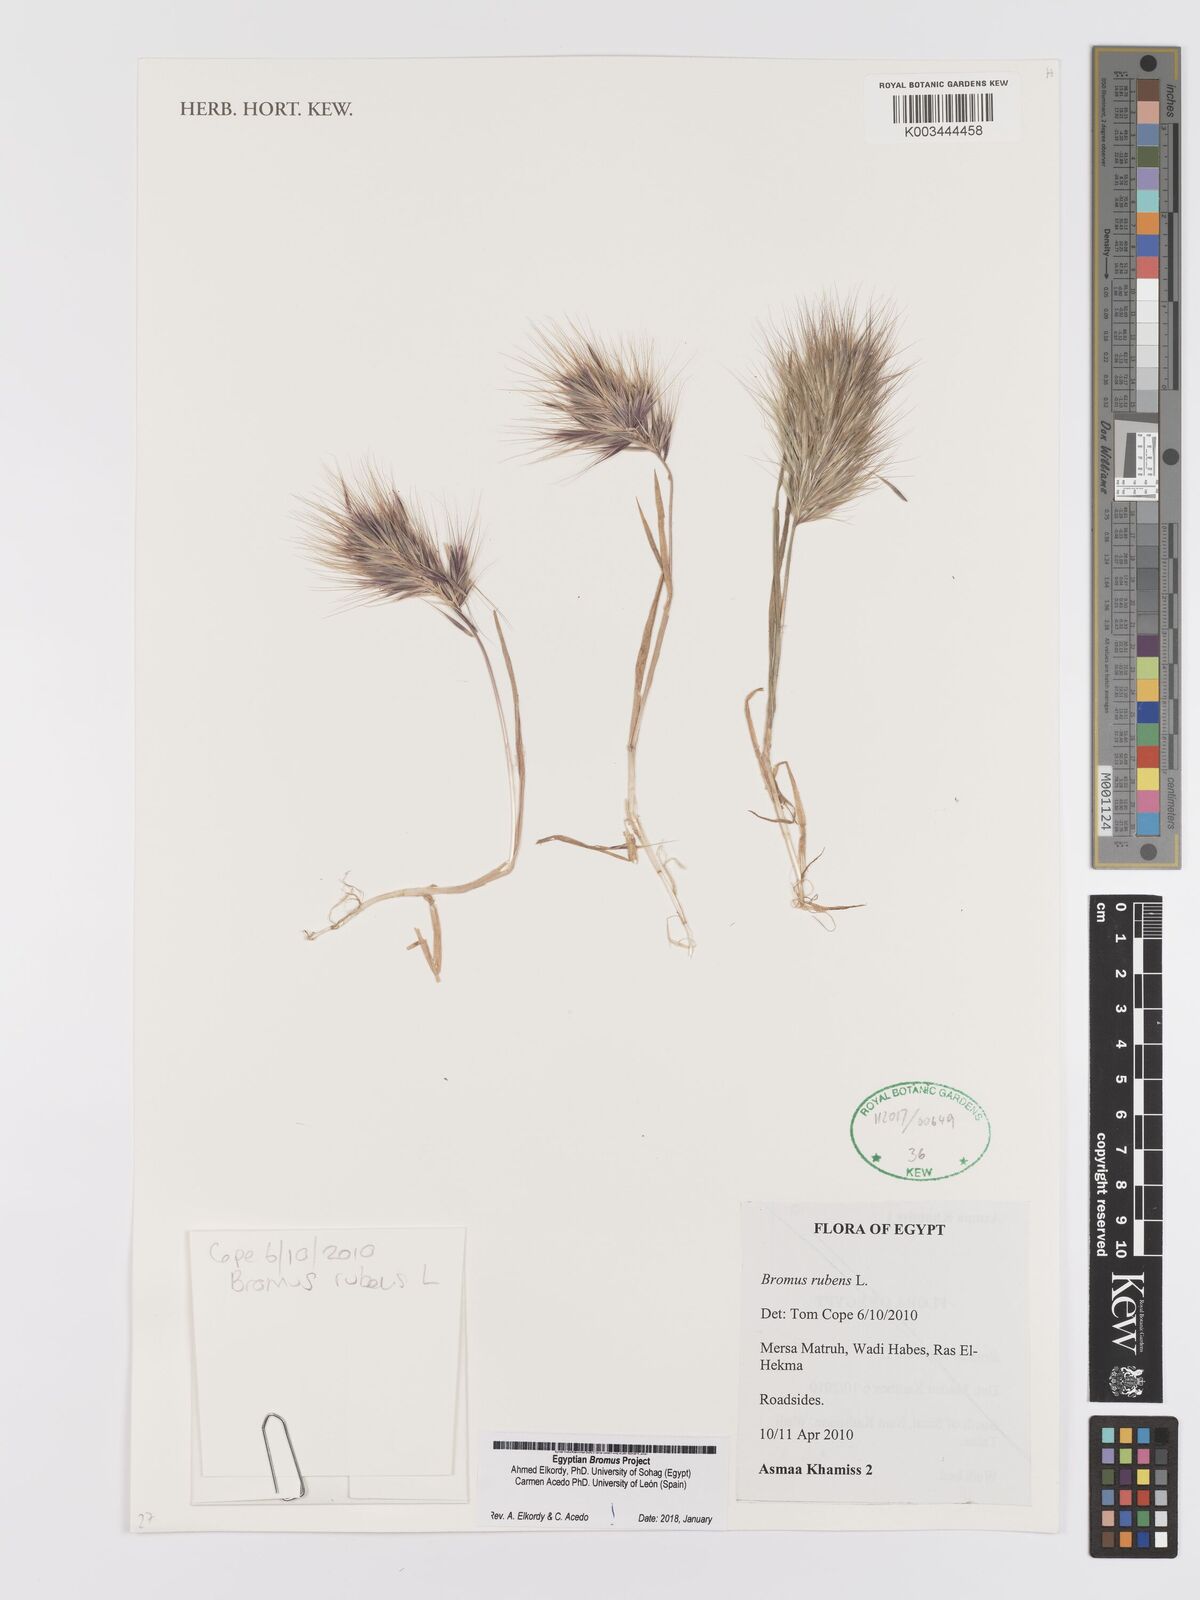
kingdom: Plantae
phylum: Tracheophyta
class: Liliopsida
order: Poales
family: Poaceae
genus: Bromus
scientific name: Bromus rubens
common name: Red brome
